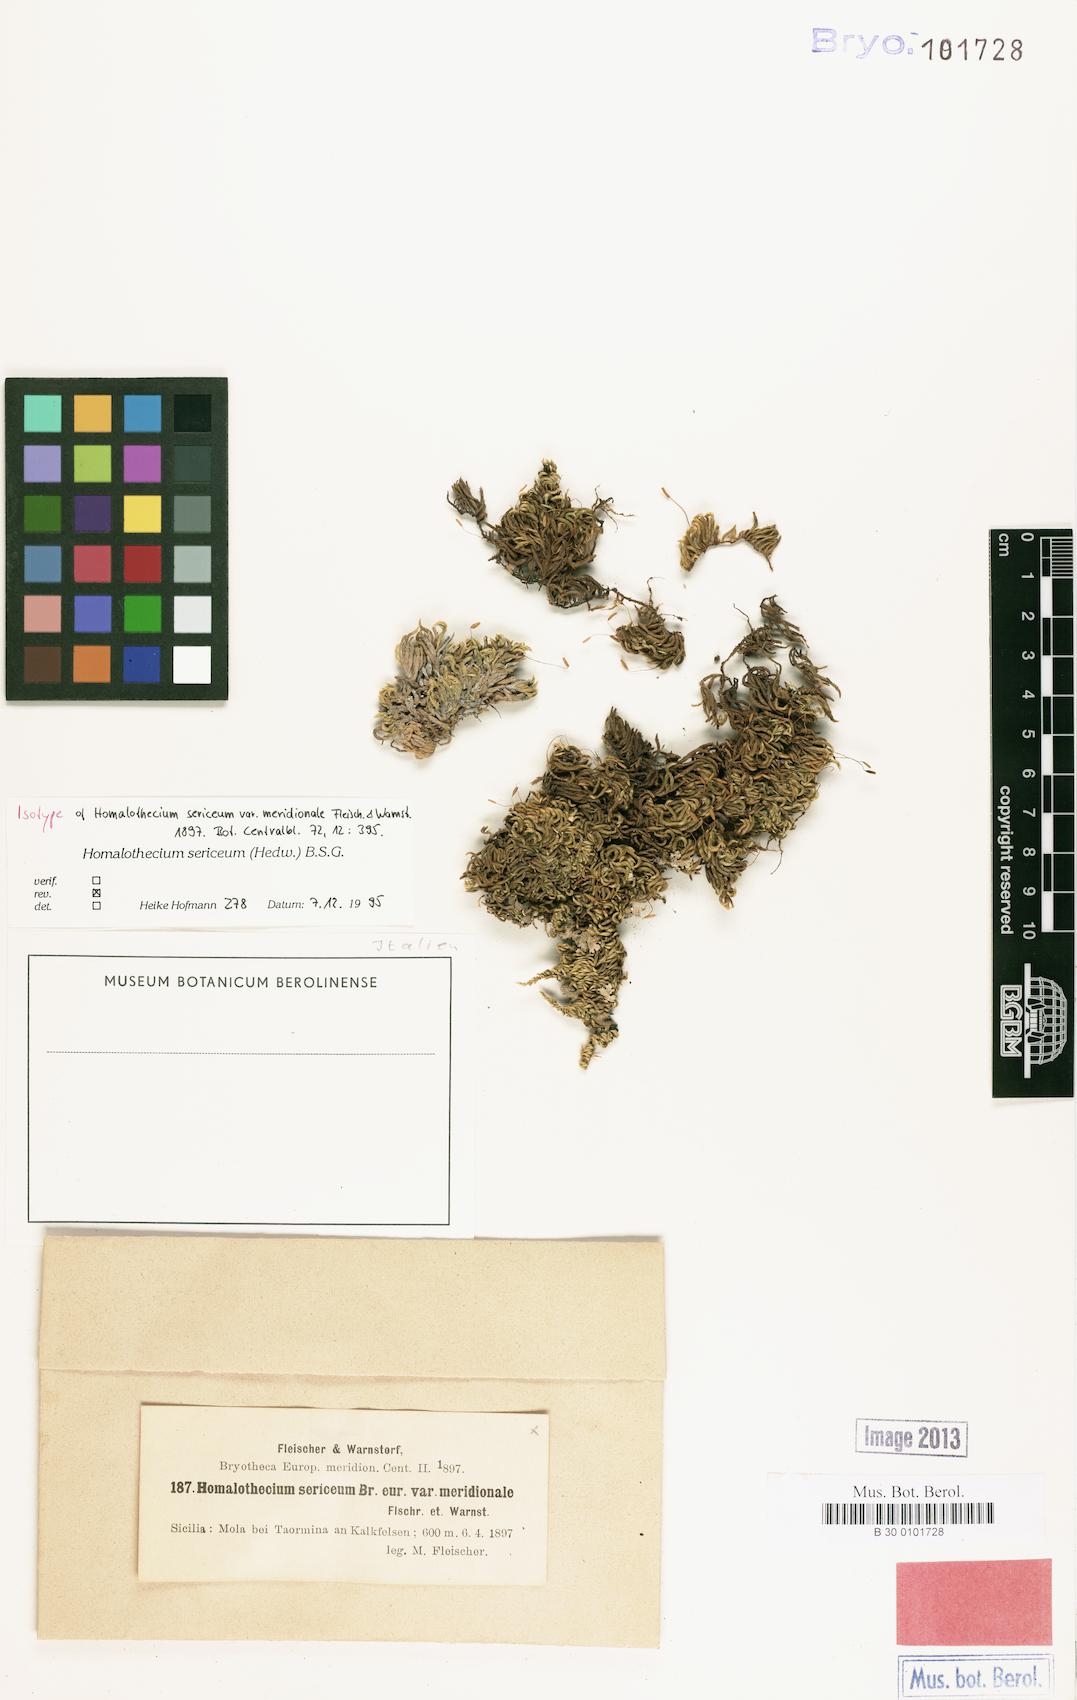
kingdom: Plantae
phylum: Bryophyta
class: Bryopsida
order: Hypnales
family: Brachytheciaceae
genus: Homalothecium
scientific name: Homalothecium sericeum
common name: Silky wall feather-moss
